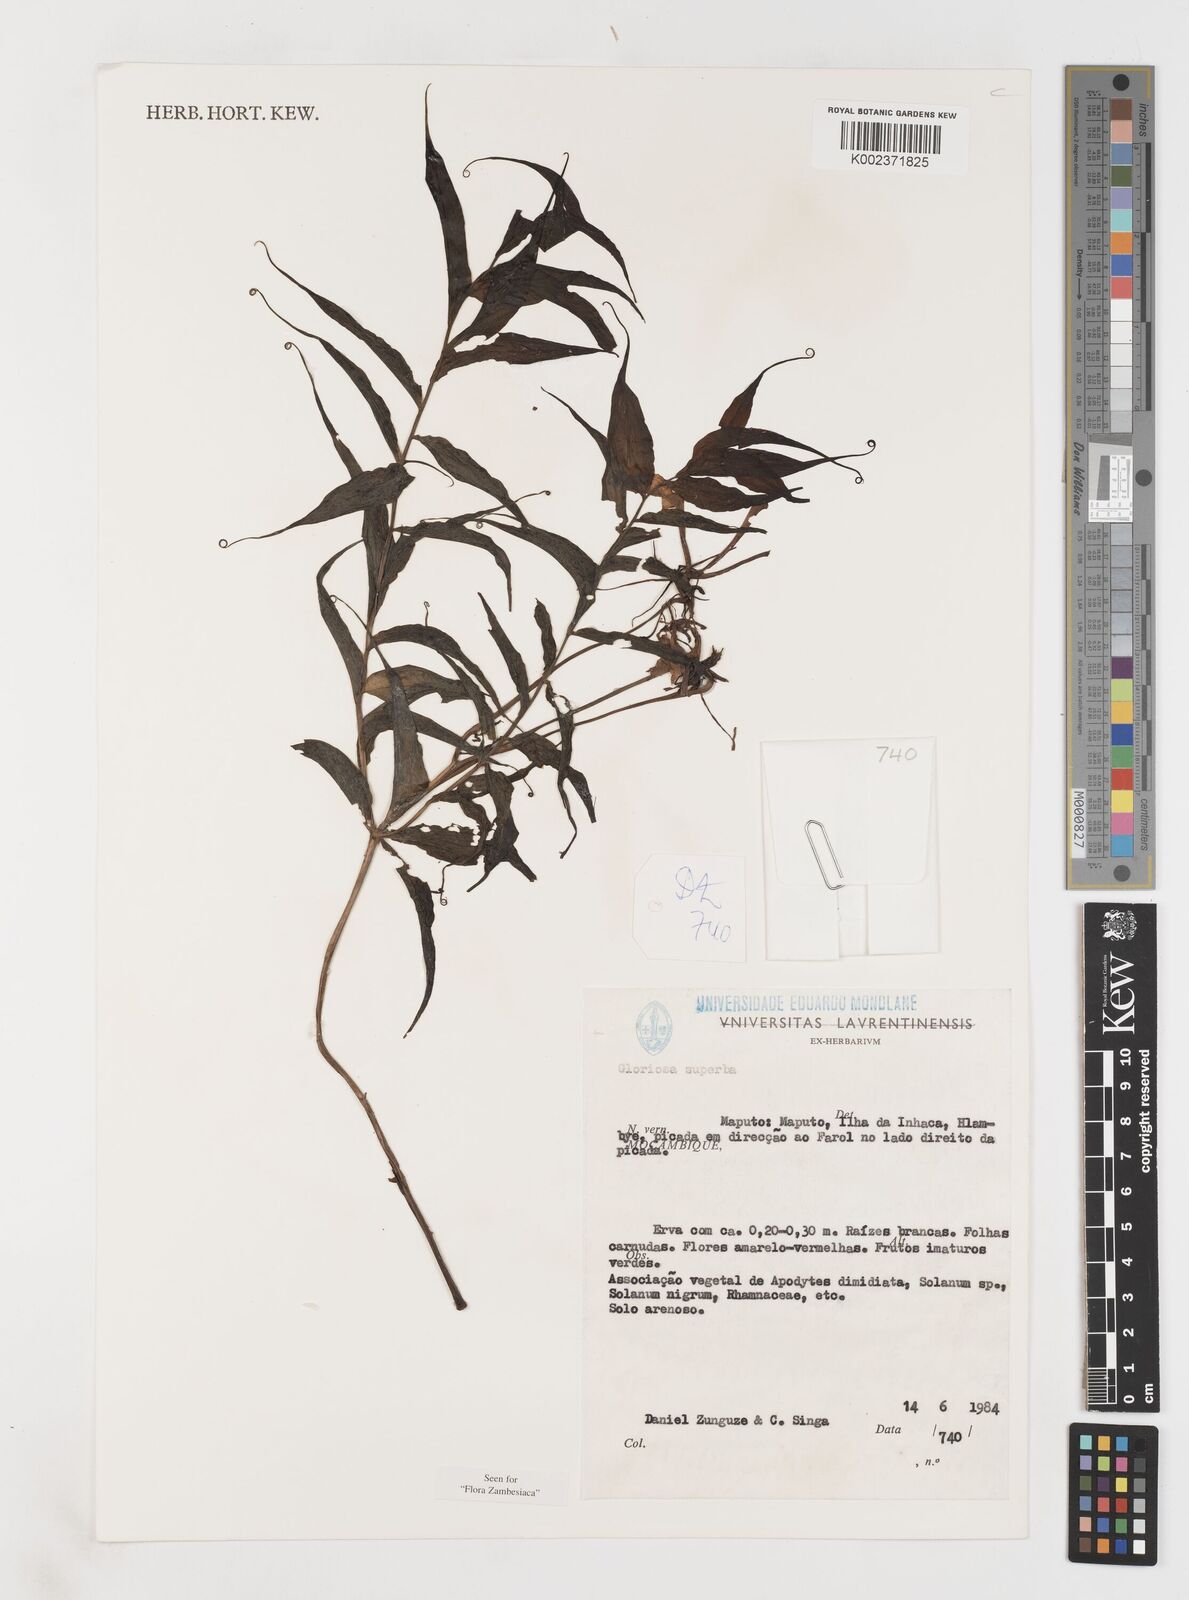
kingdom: Plantae
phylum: Tracheophyta
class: Liliopsida
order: Liliales
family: Colchicaceae
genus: Gloriosa
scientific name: Gloriosa simplex
